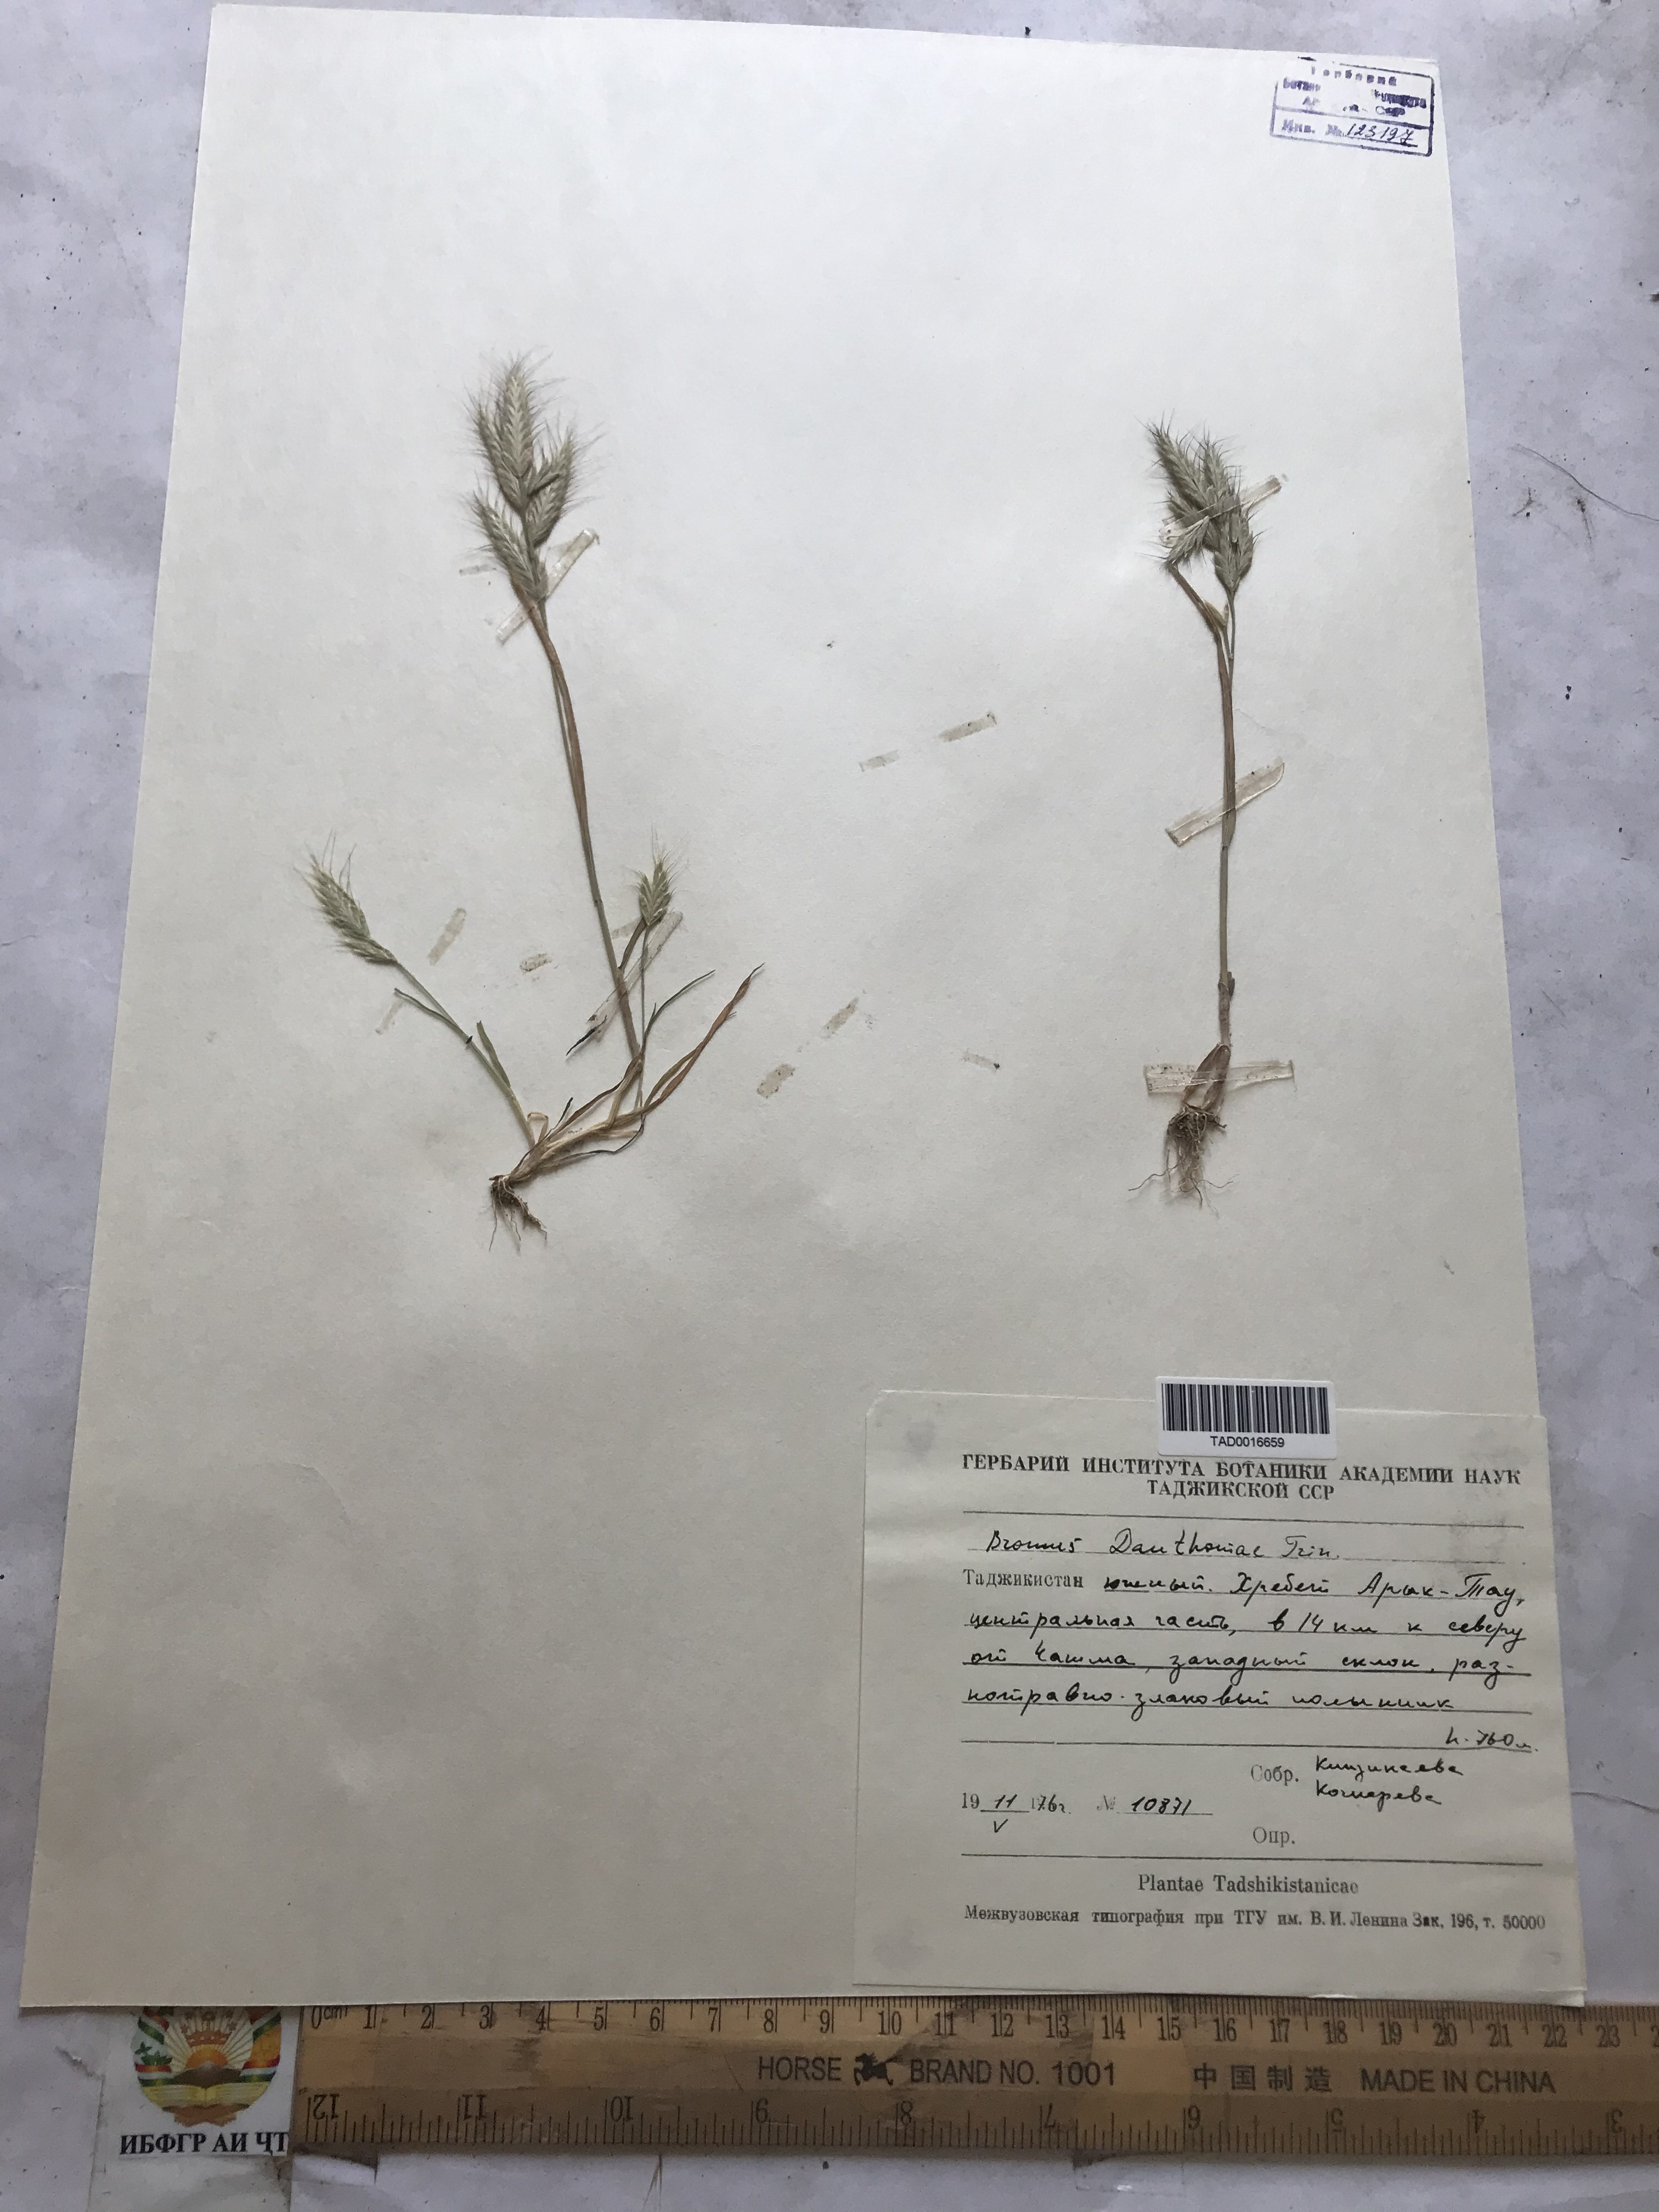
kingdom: Plantae
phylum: Tracheophyta
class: Liliopsida
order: Poales
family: Poaceae
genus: Bromus
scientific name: Bromus danthoniae
